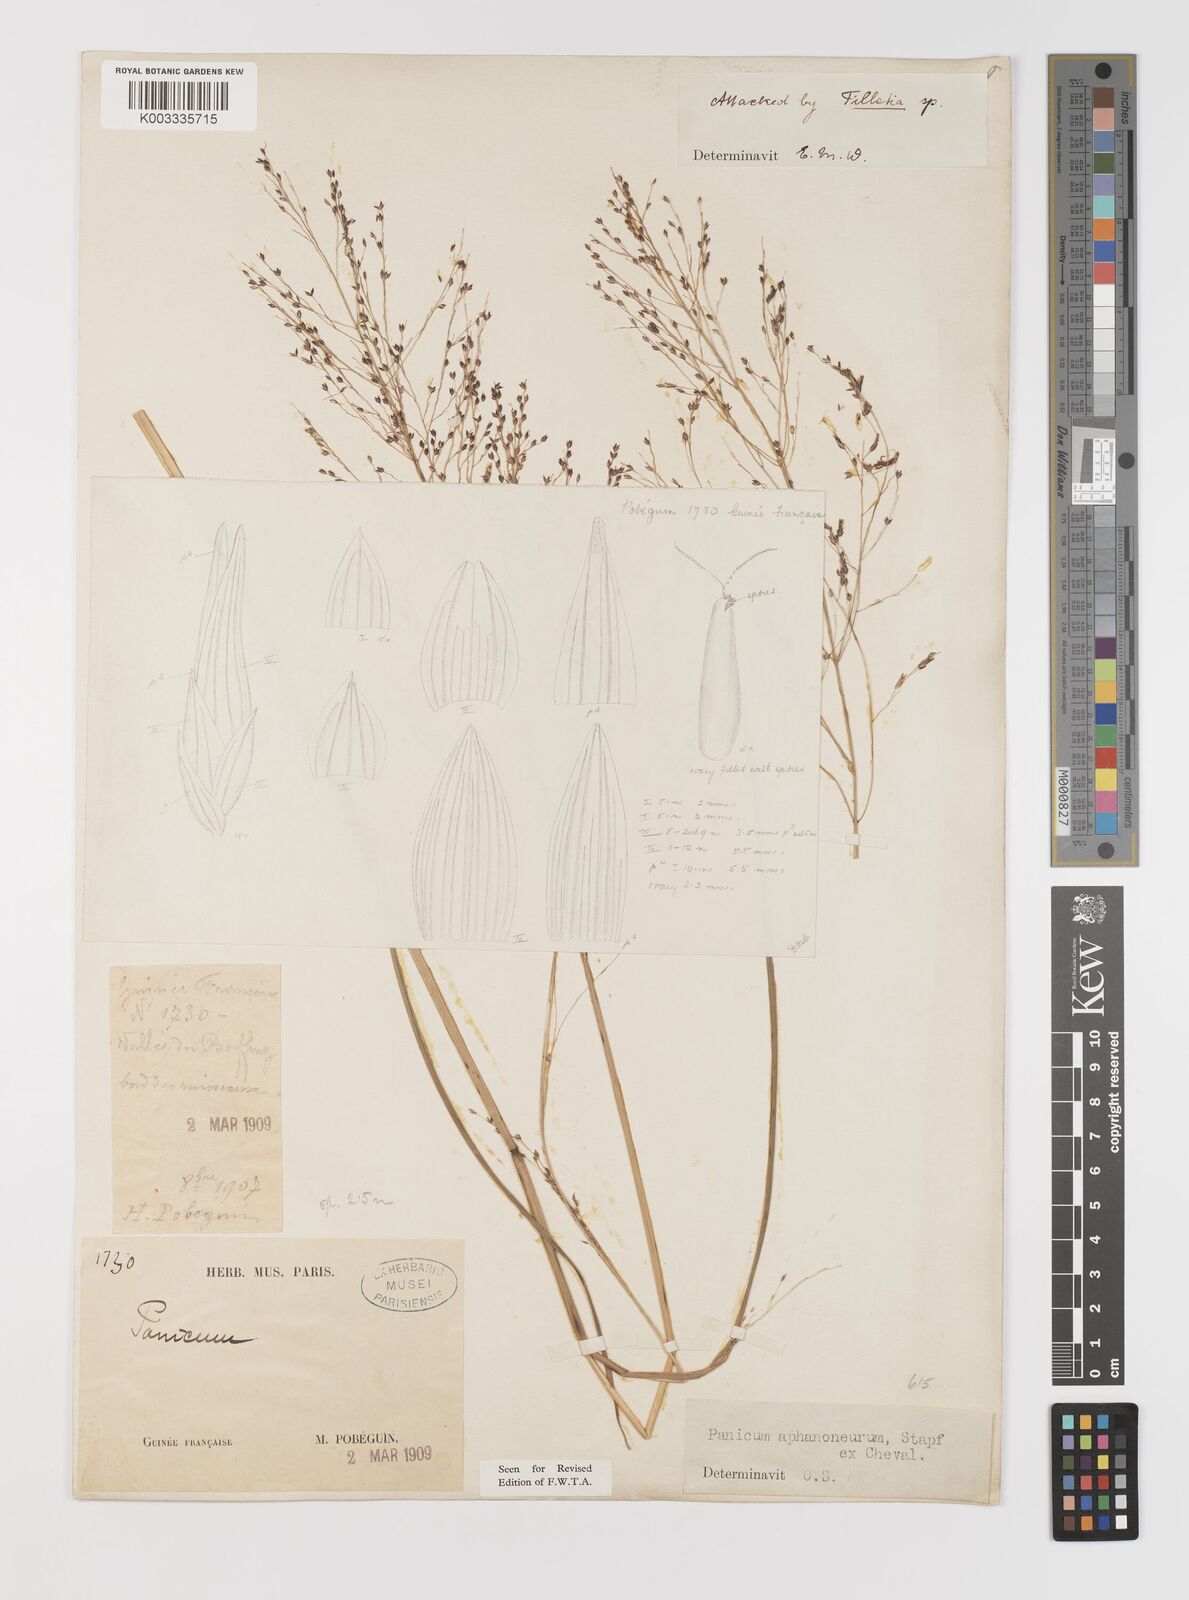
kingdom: Plantae
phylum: Tracheophyta
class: Liliopsida
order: Poales
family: Poaceae
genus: Panicum
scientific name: Panicum fluviicola
